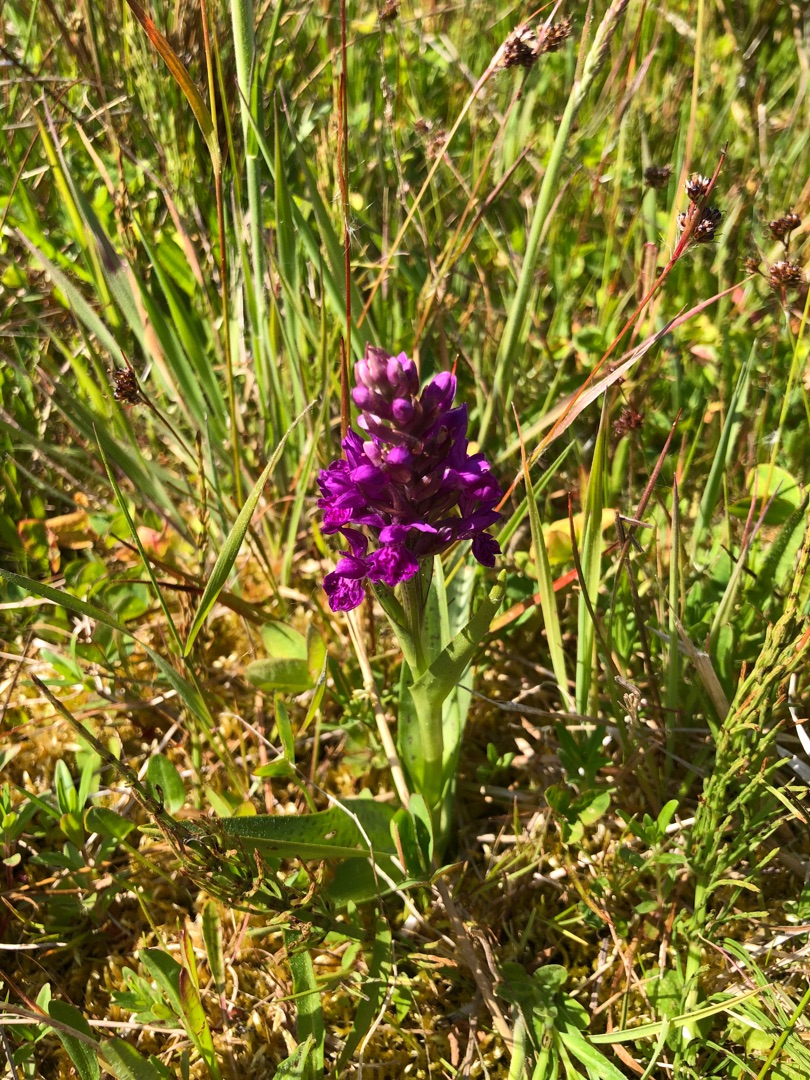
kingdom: Plantae
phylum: Tracheophyta
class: Liliopsida
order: Asparagales
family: Orchidaceae
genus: Dactylorhiza
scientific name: Dactylorhiza majalis
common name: Maj-gøgeurt
